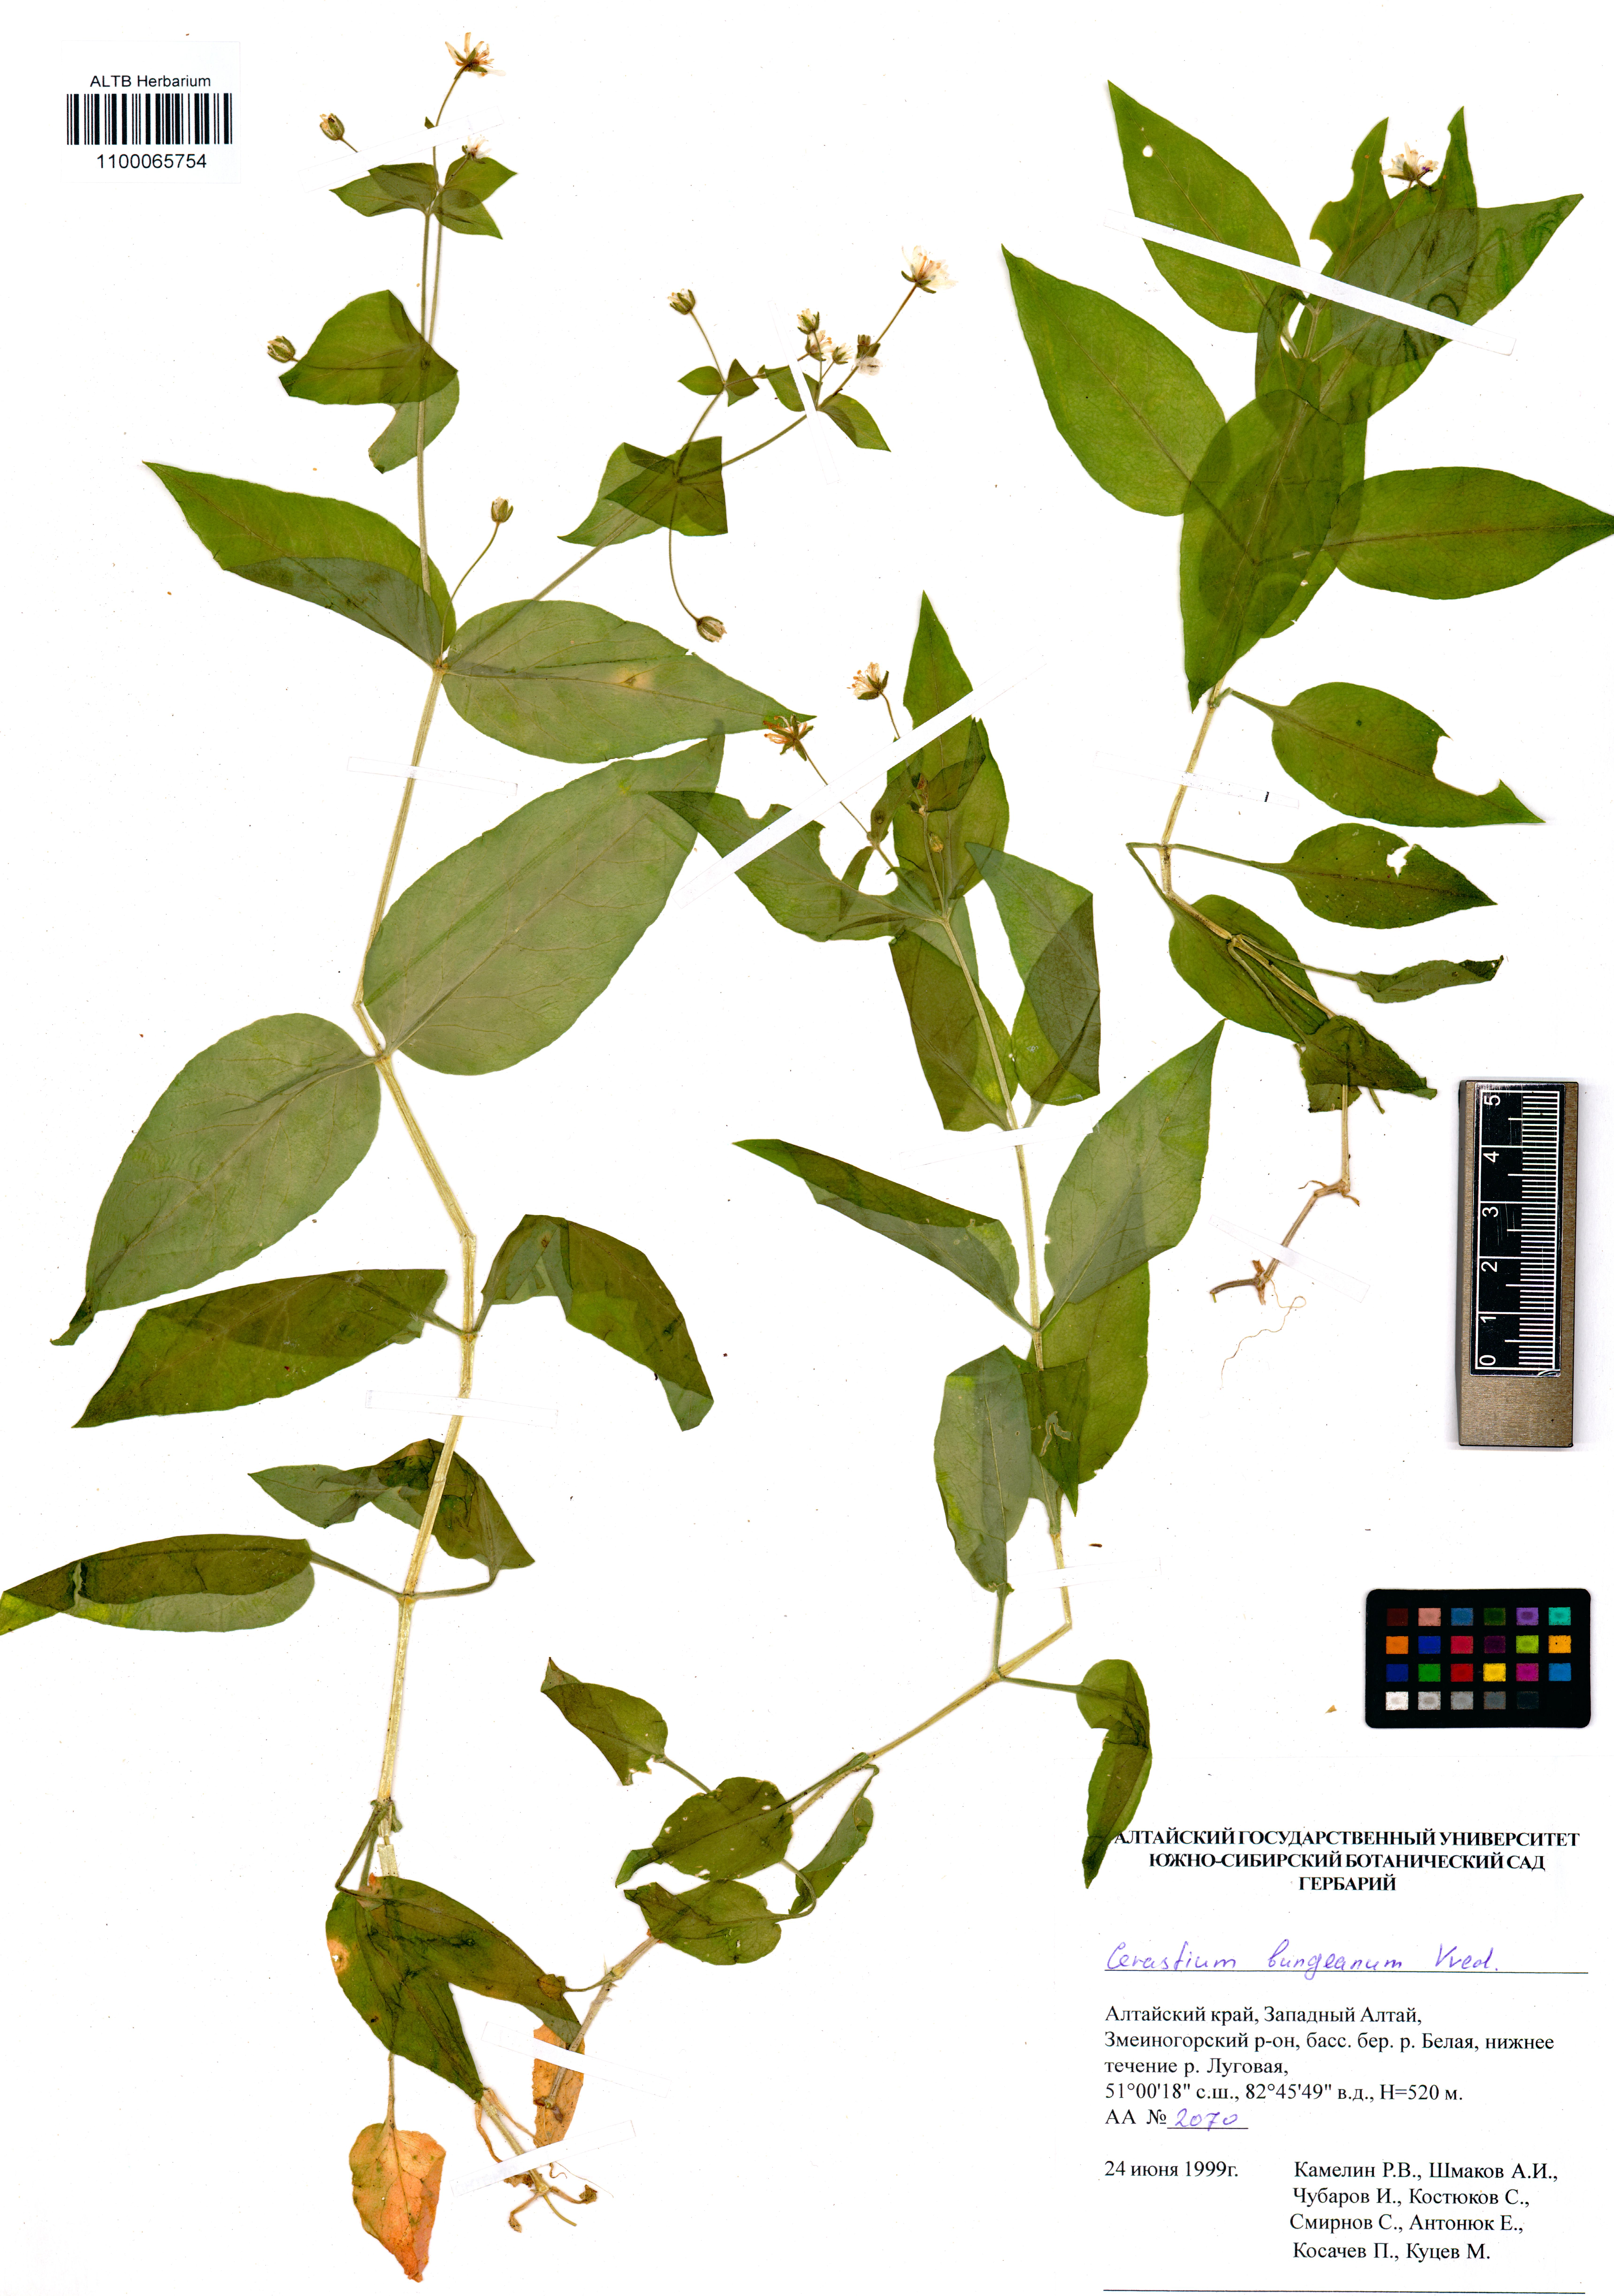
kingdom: Plantae
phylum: Tracheophyta
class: Magnoliopsida
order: Caryophyllales
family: Caryophyllaceae
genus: Dichodon
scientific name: Dichodon maximum
